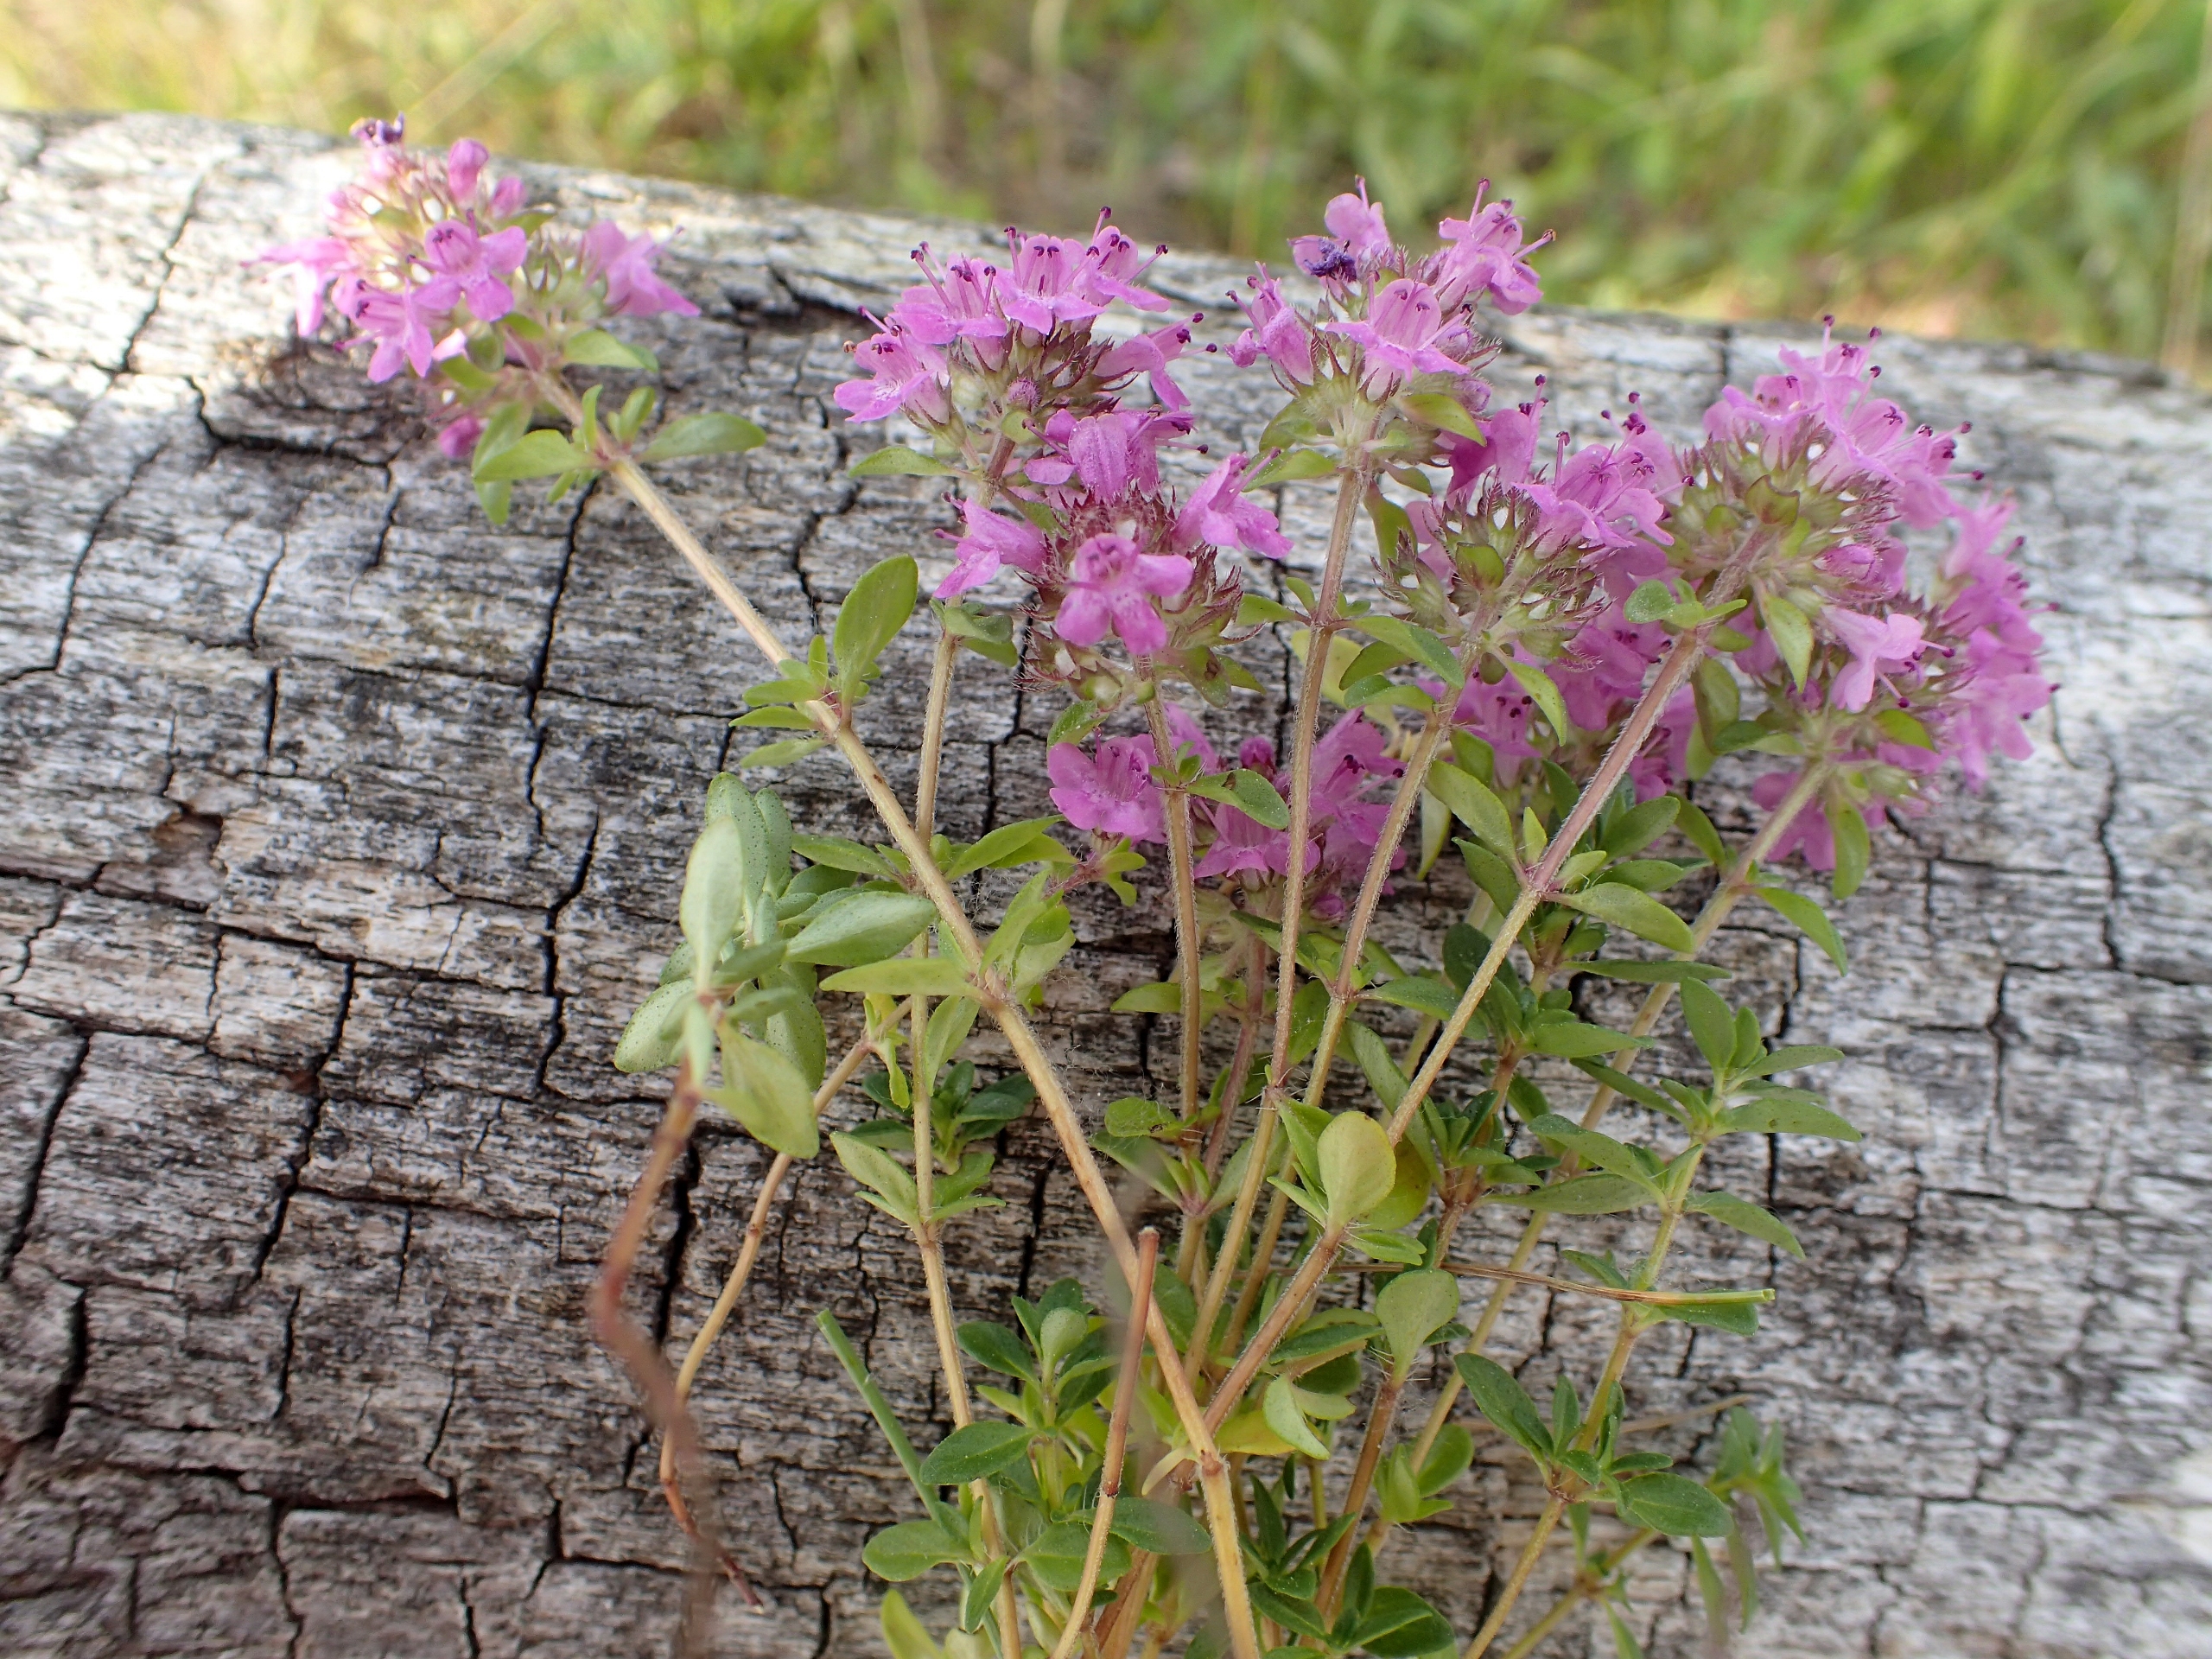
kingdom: Plantae
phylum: Tracheophyta
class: Magnoliopsida
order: Lamiales
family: Lamiaceae
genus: Thymus
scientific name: Thymus serpyllum
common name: Smalbladet timian
